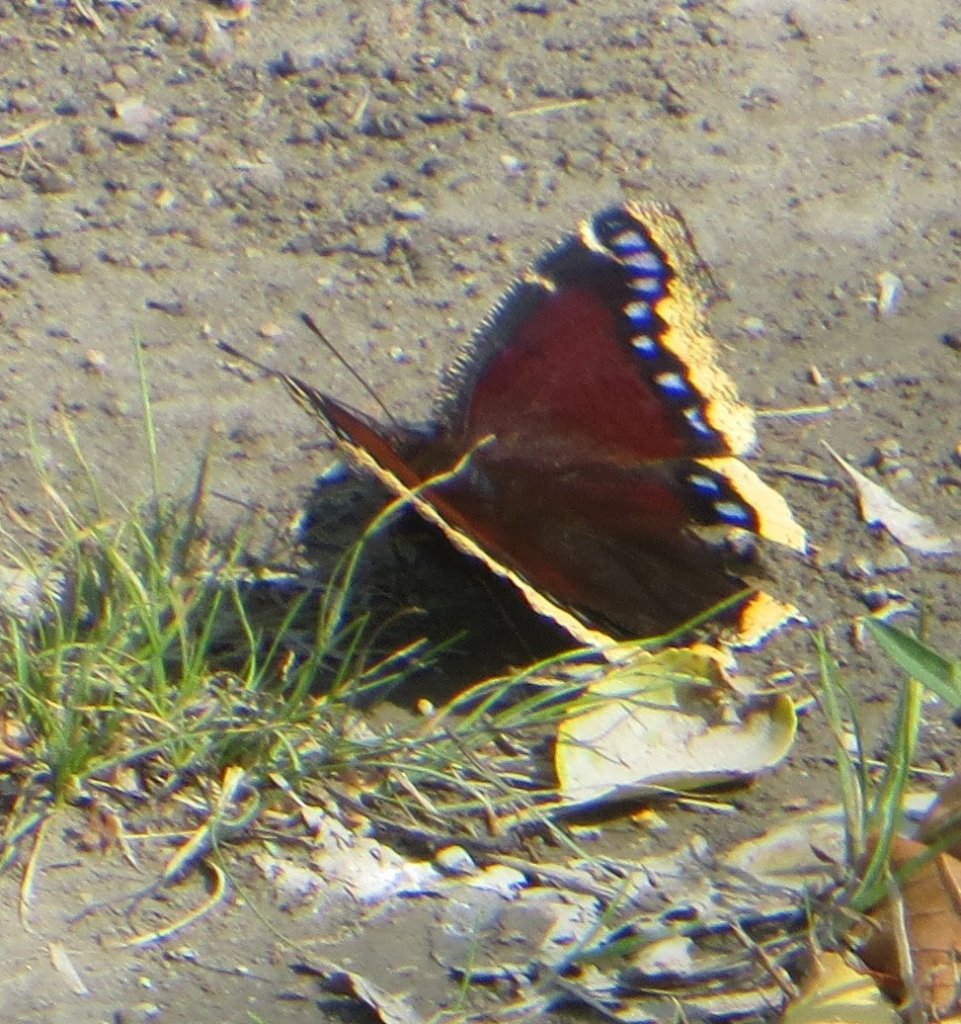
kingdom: Animalia
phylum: Arthropoda
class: Insecta
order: Lepidoptera
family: Nymphalidae
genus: Nymphalis
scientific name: Nymphalis antiopa
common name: Mourning Cloak
